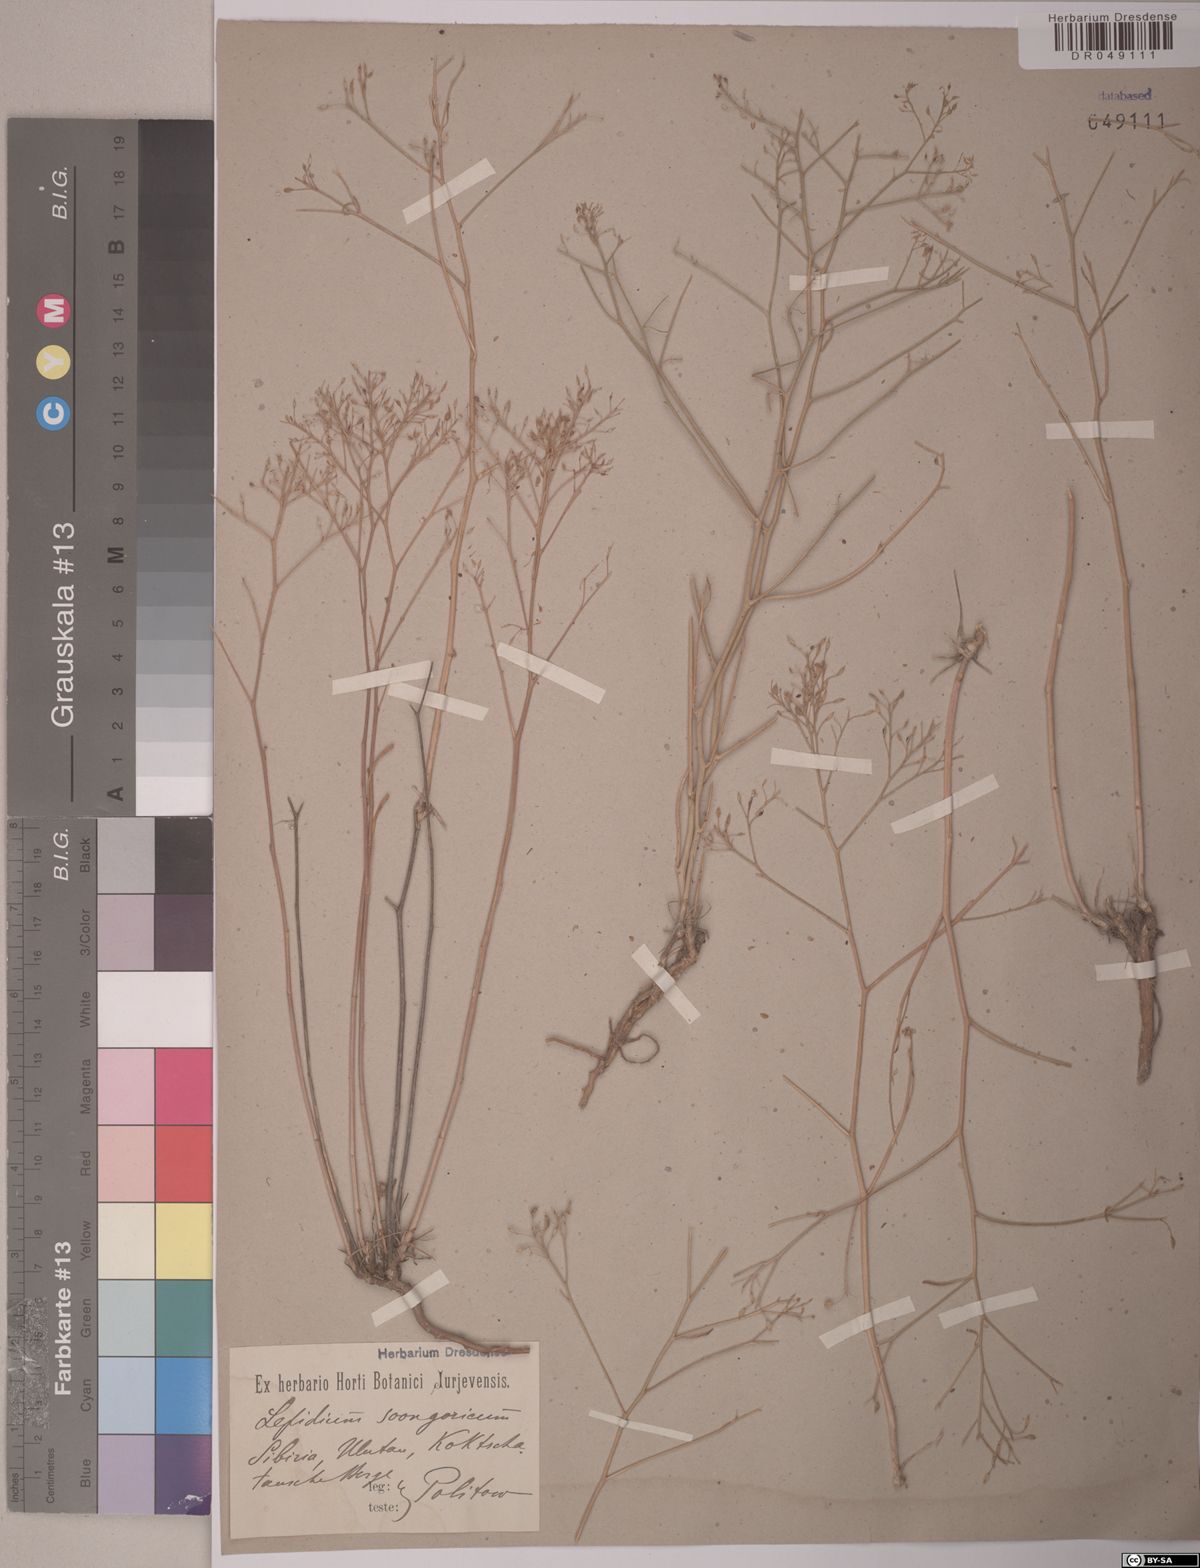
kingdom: Plantae
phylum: Tracheophyta
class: Magnoliopsida
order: Brassicales
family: Brassicaceae
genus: Lepidium
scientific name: Lepidium songaricum
